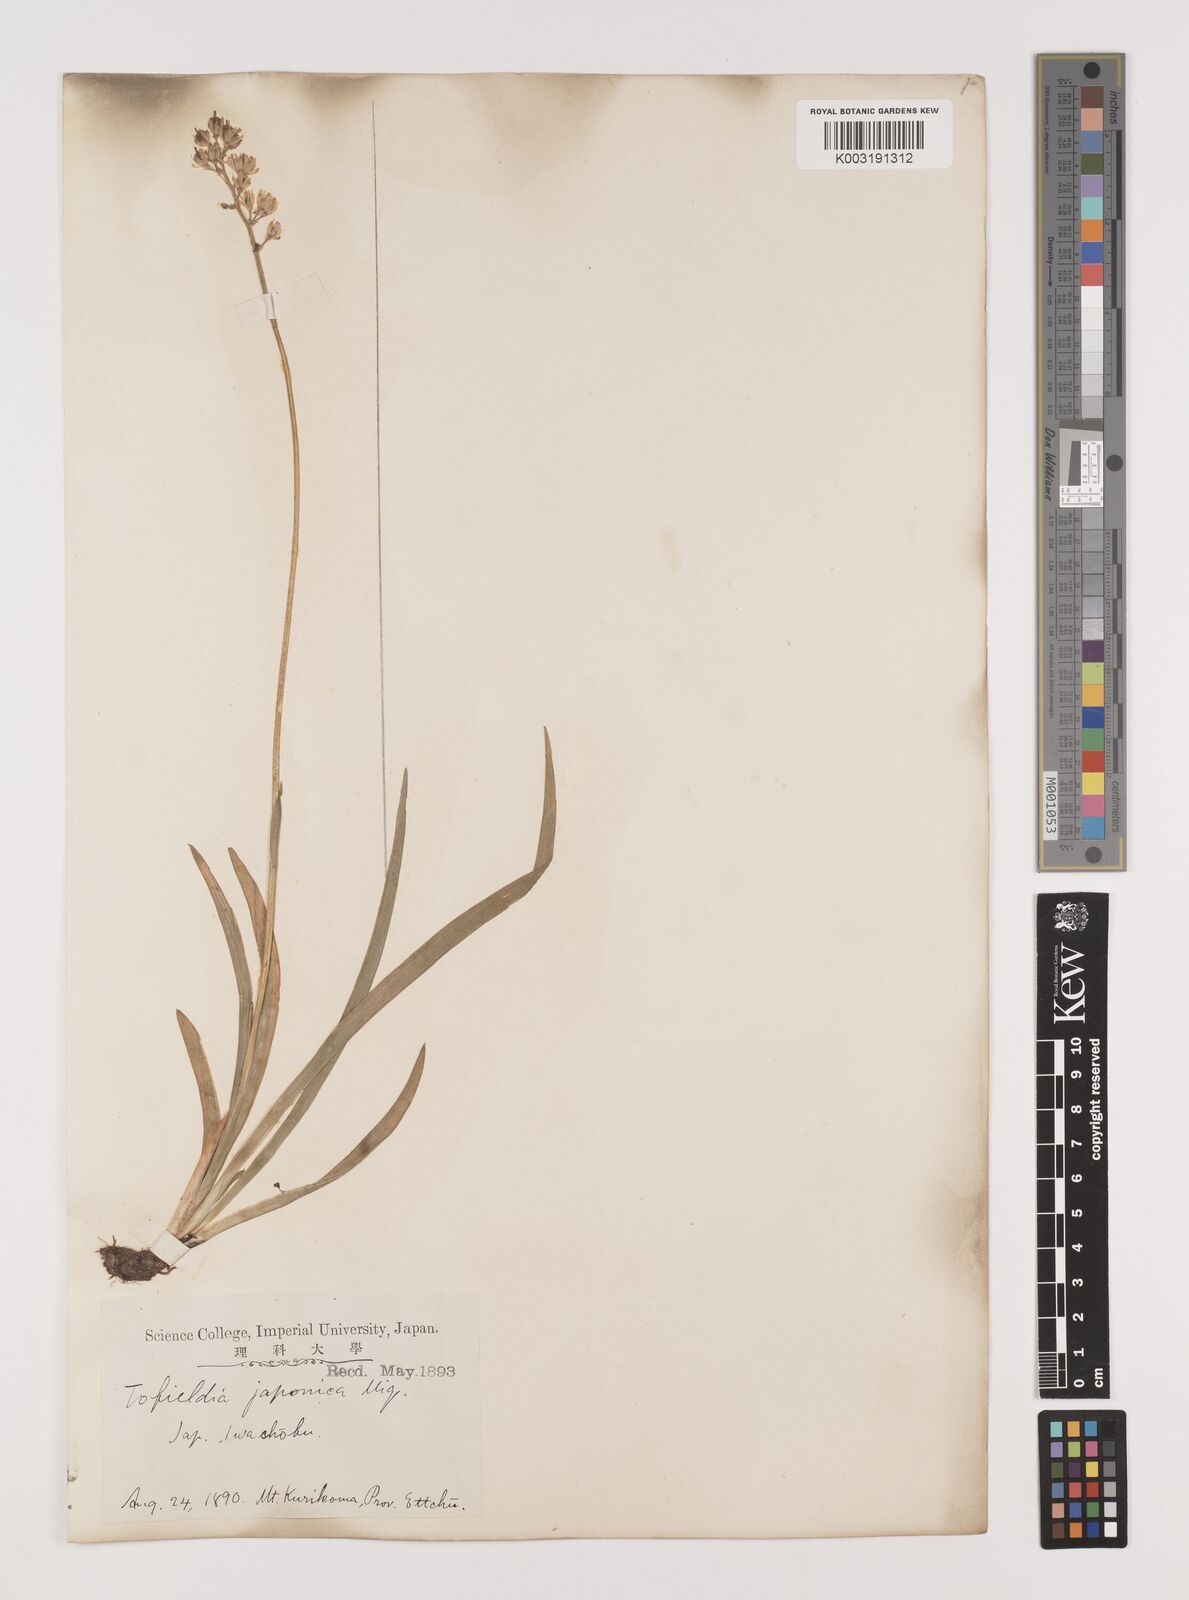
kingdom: Plantae
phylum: Tracheophyta
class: Liliopsida
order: Alismatales
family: Tofieldiaceae
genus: Triantha
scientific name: Triantha japonica
